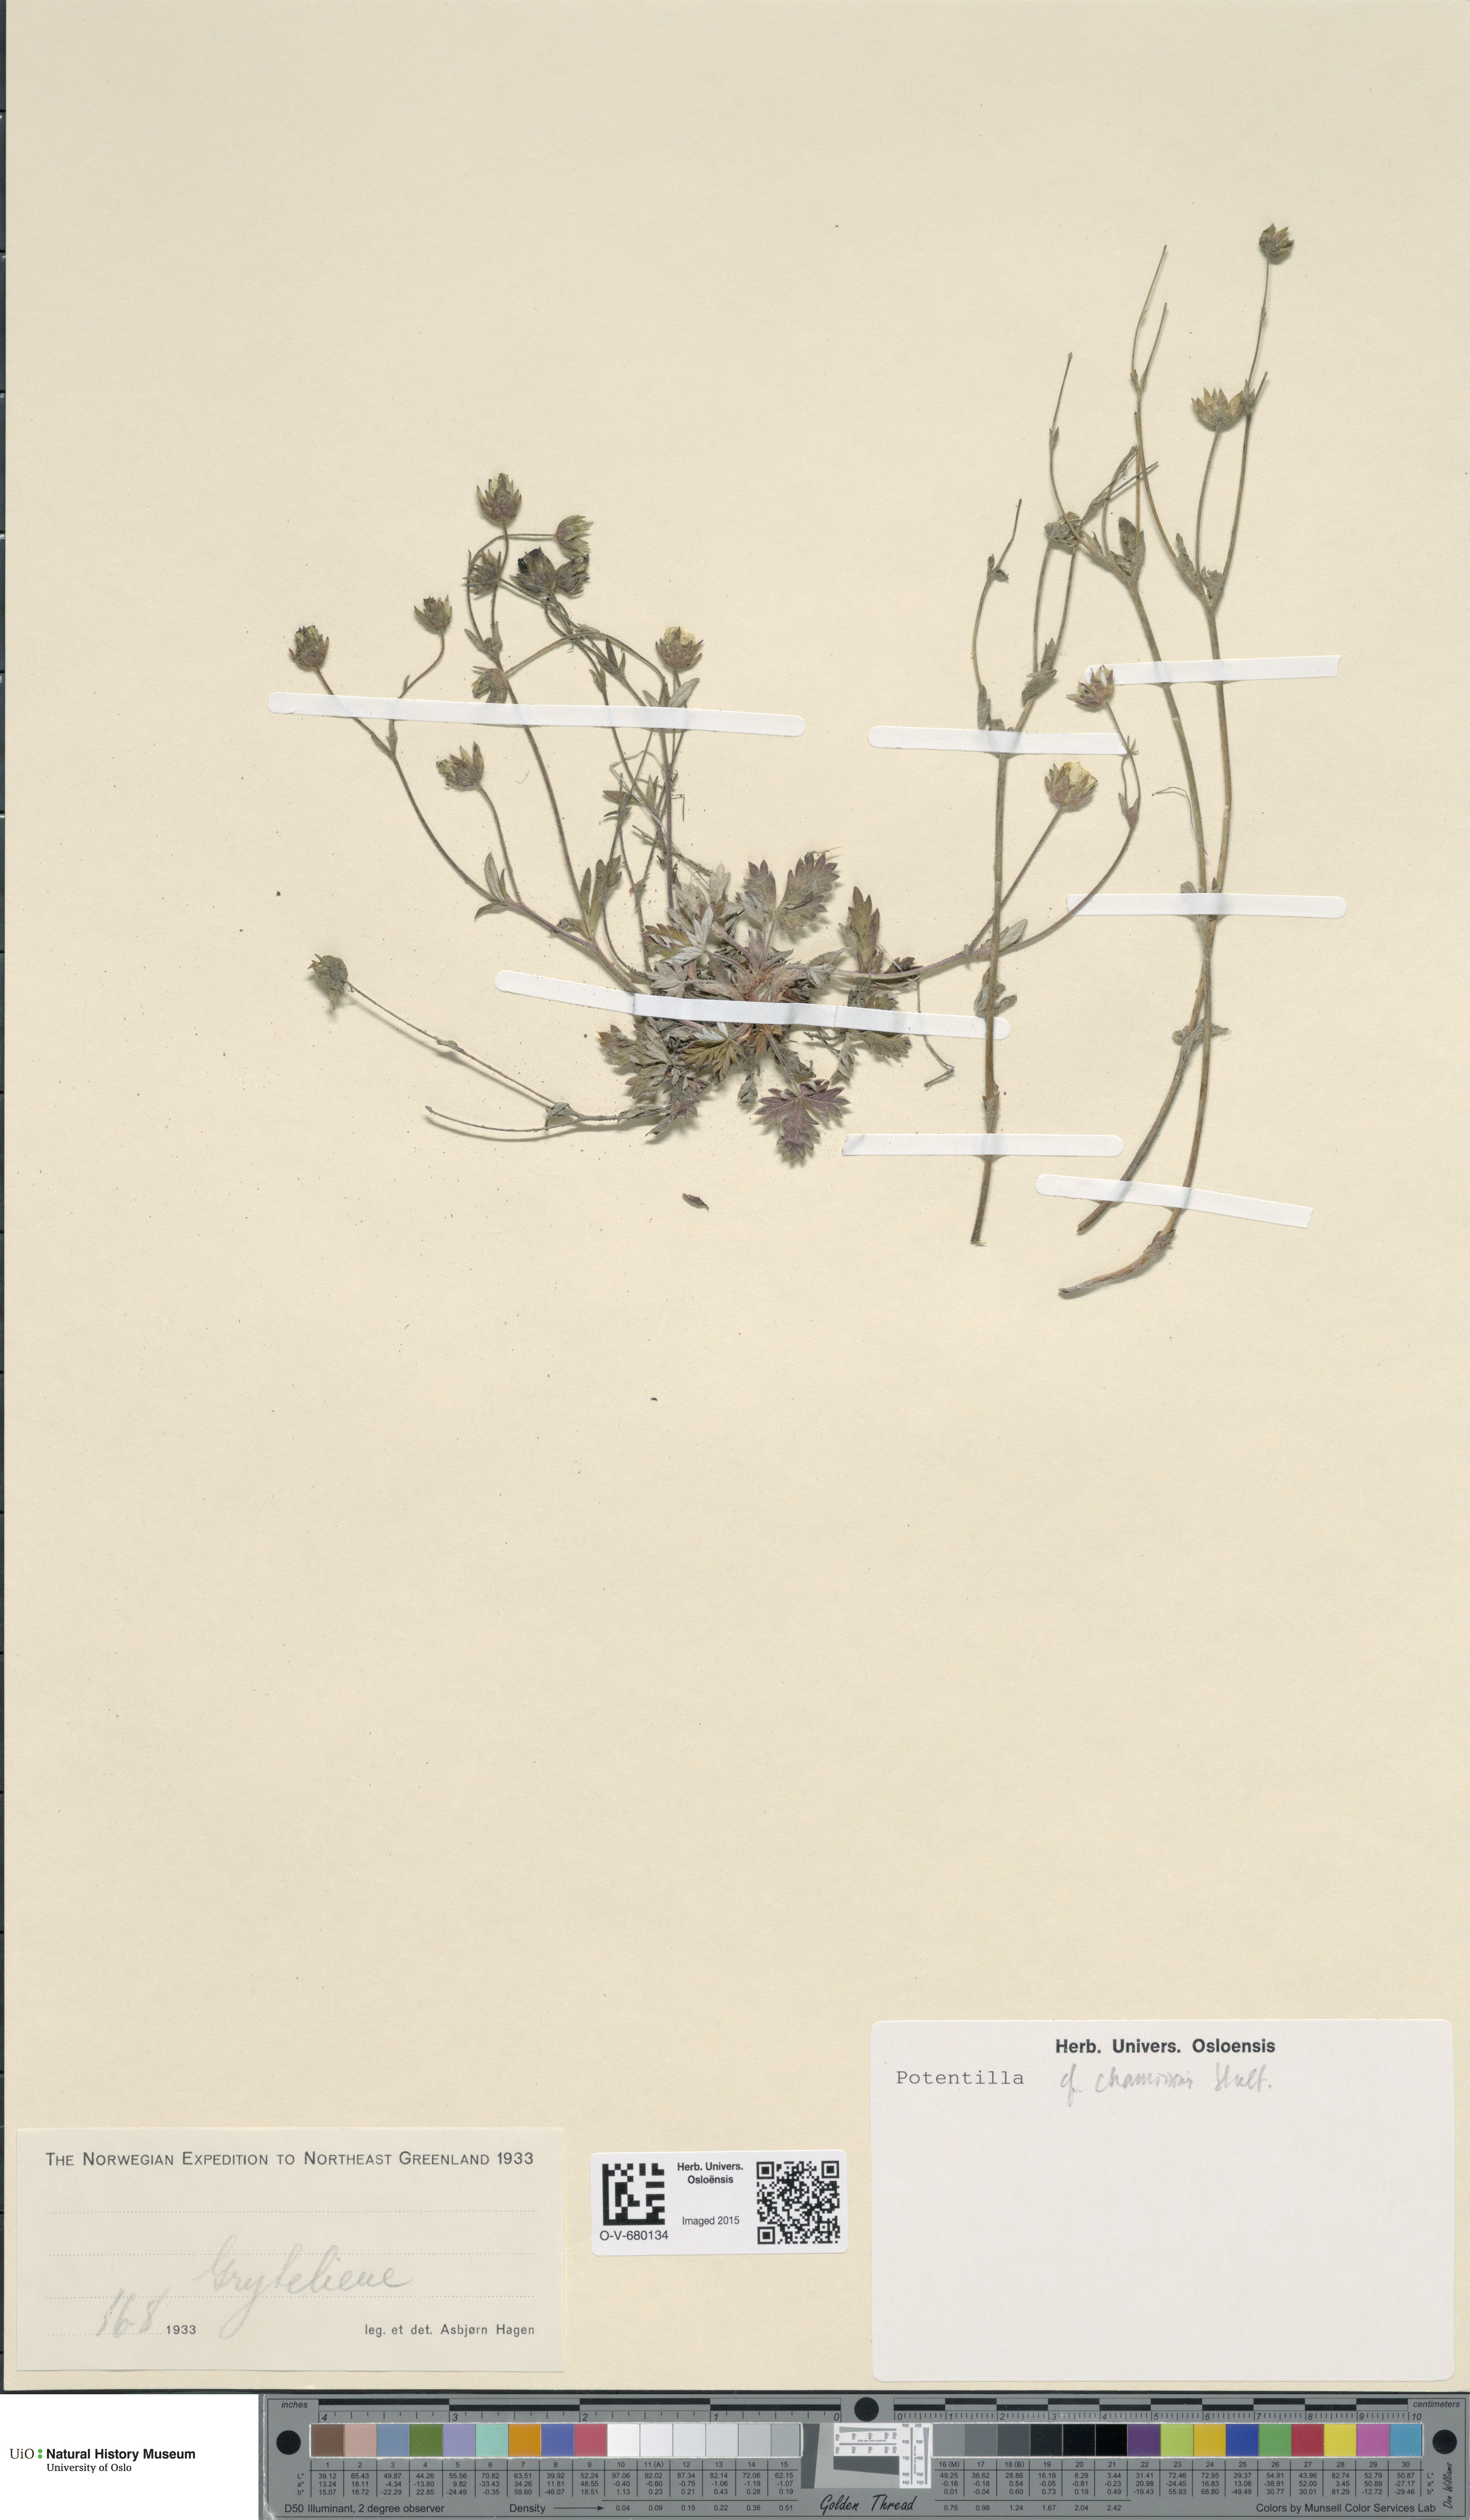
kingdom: Plantae
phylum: Tracheophyta
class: Magnoliopsida
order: Rosales
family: Rosaceae
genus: Potentilla
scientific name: Potentilla chamissonis
